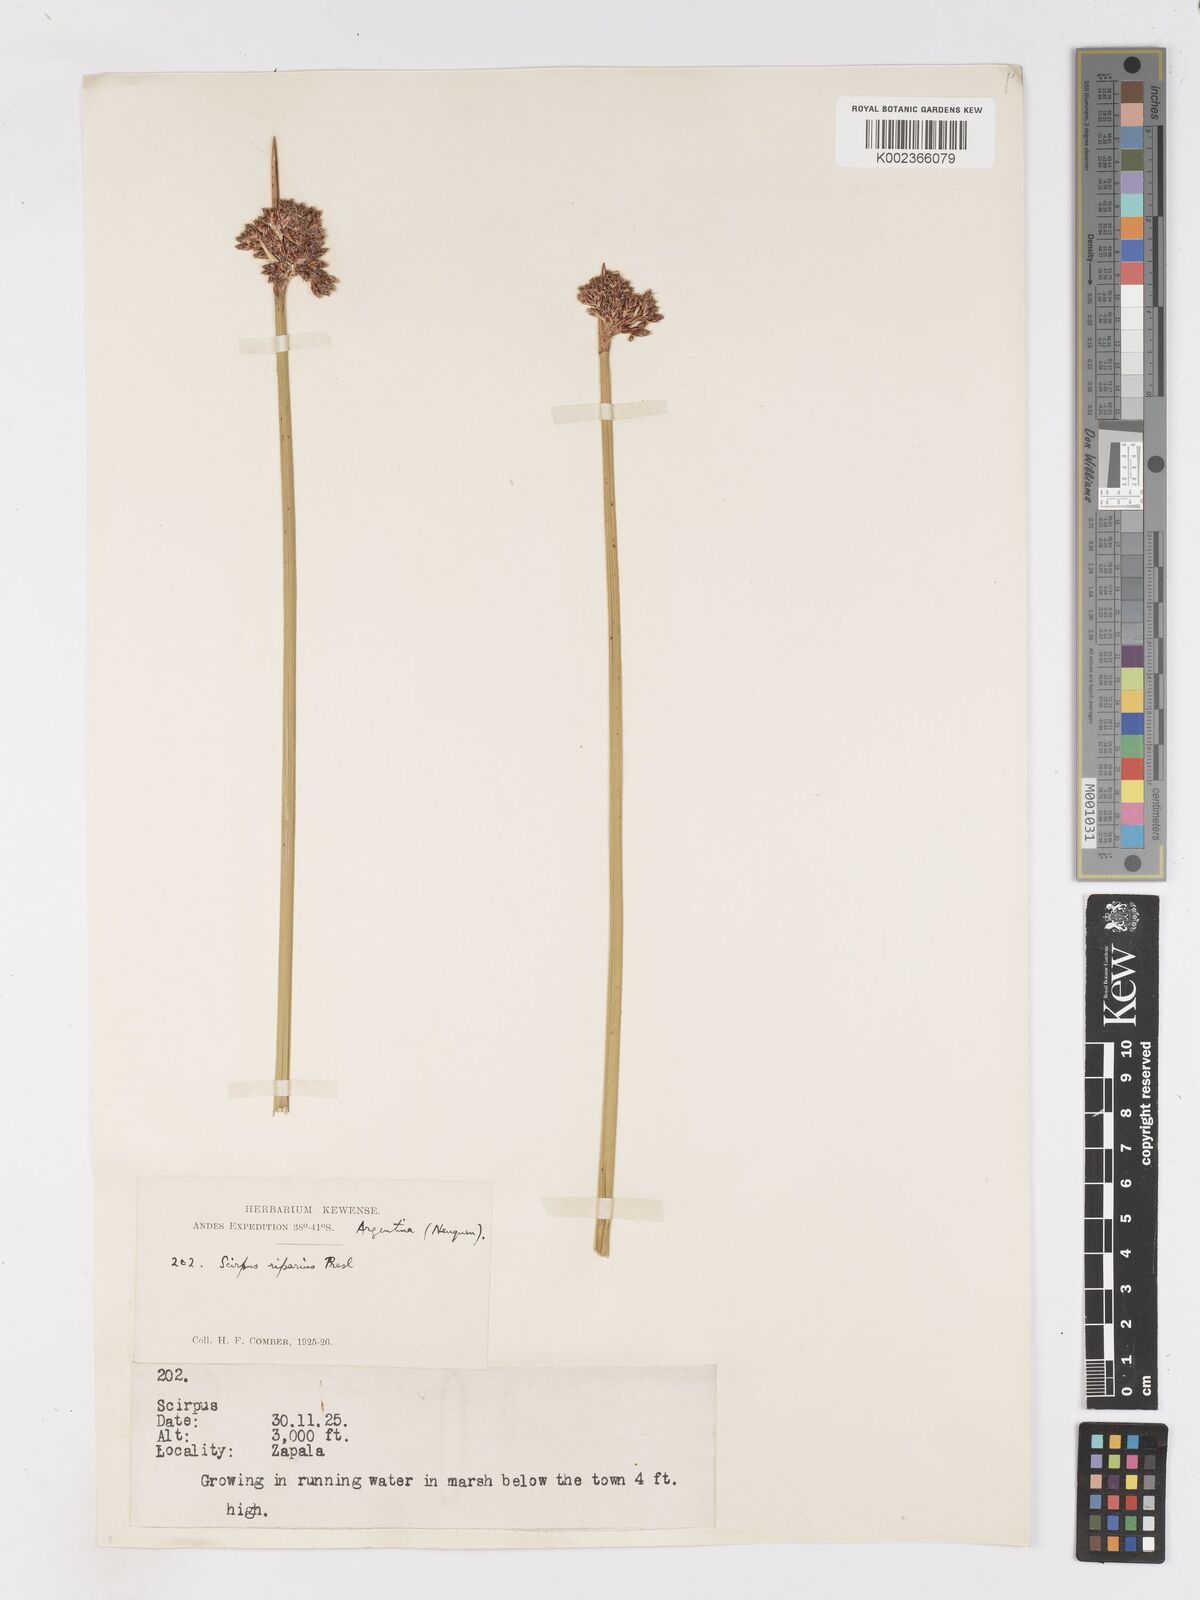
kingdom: Plantae
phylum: Tracheophyta
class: Liliopsida
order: Poales
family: Cyperaceae
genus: Schoenoplectus
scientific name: Schoenoplectus californicus
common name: California bulrush
